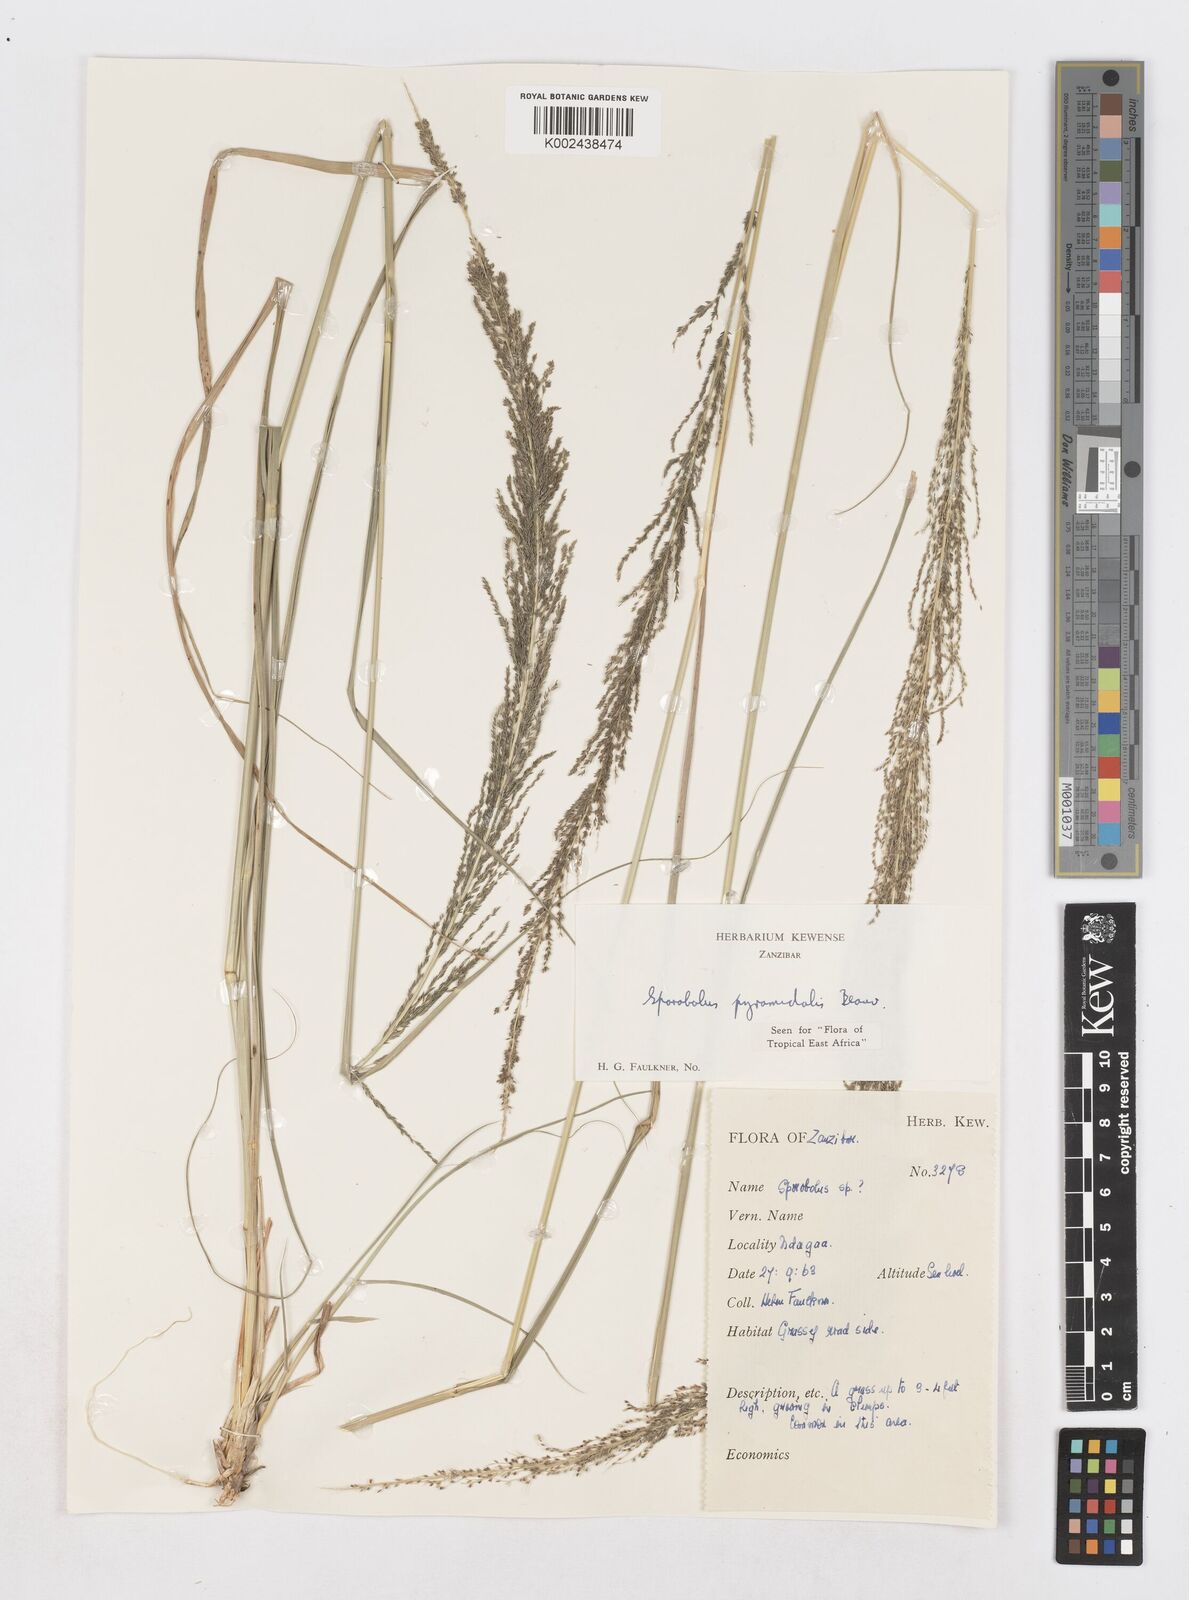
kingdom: Plantae
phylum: Tracheophyta
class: Liliopsida
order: Poales
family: Poaceae
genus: Sporobolus
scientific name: Sporobolus pyramidalis
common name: West indian dropseed
